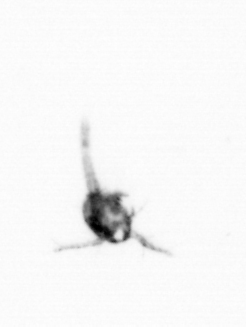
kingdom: Animalia
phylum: Arthropoda
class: Copepoda
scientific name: Copepoda
